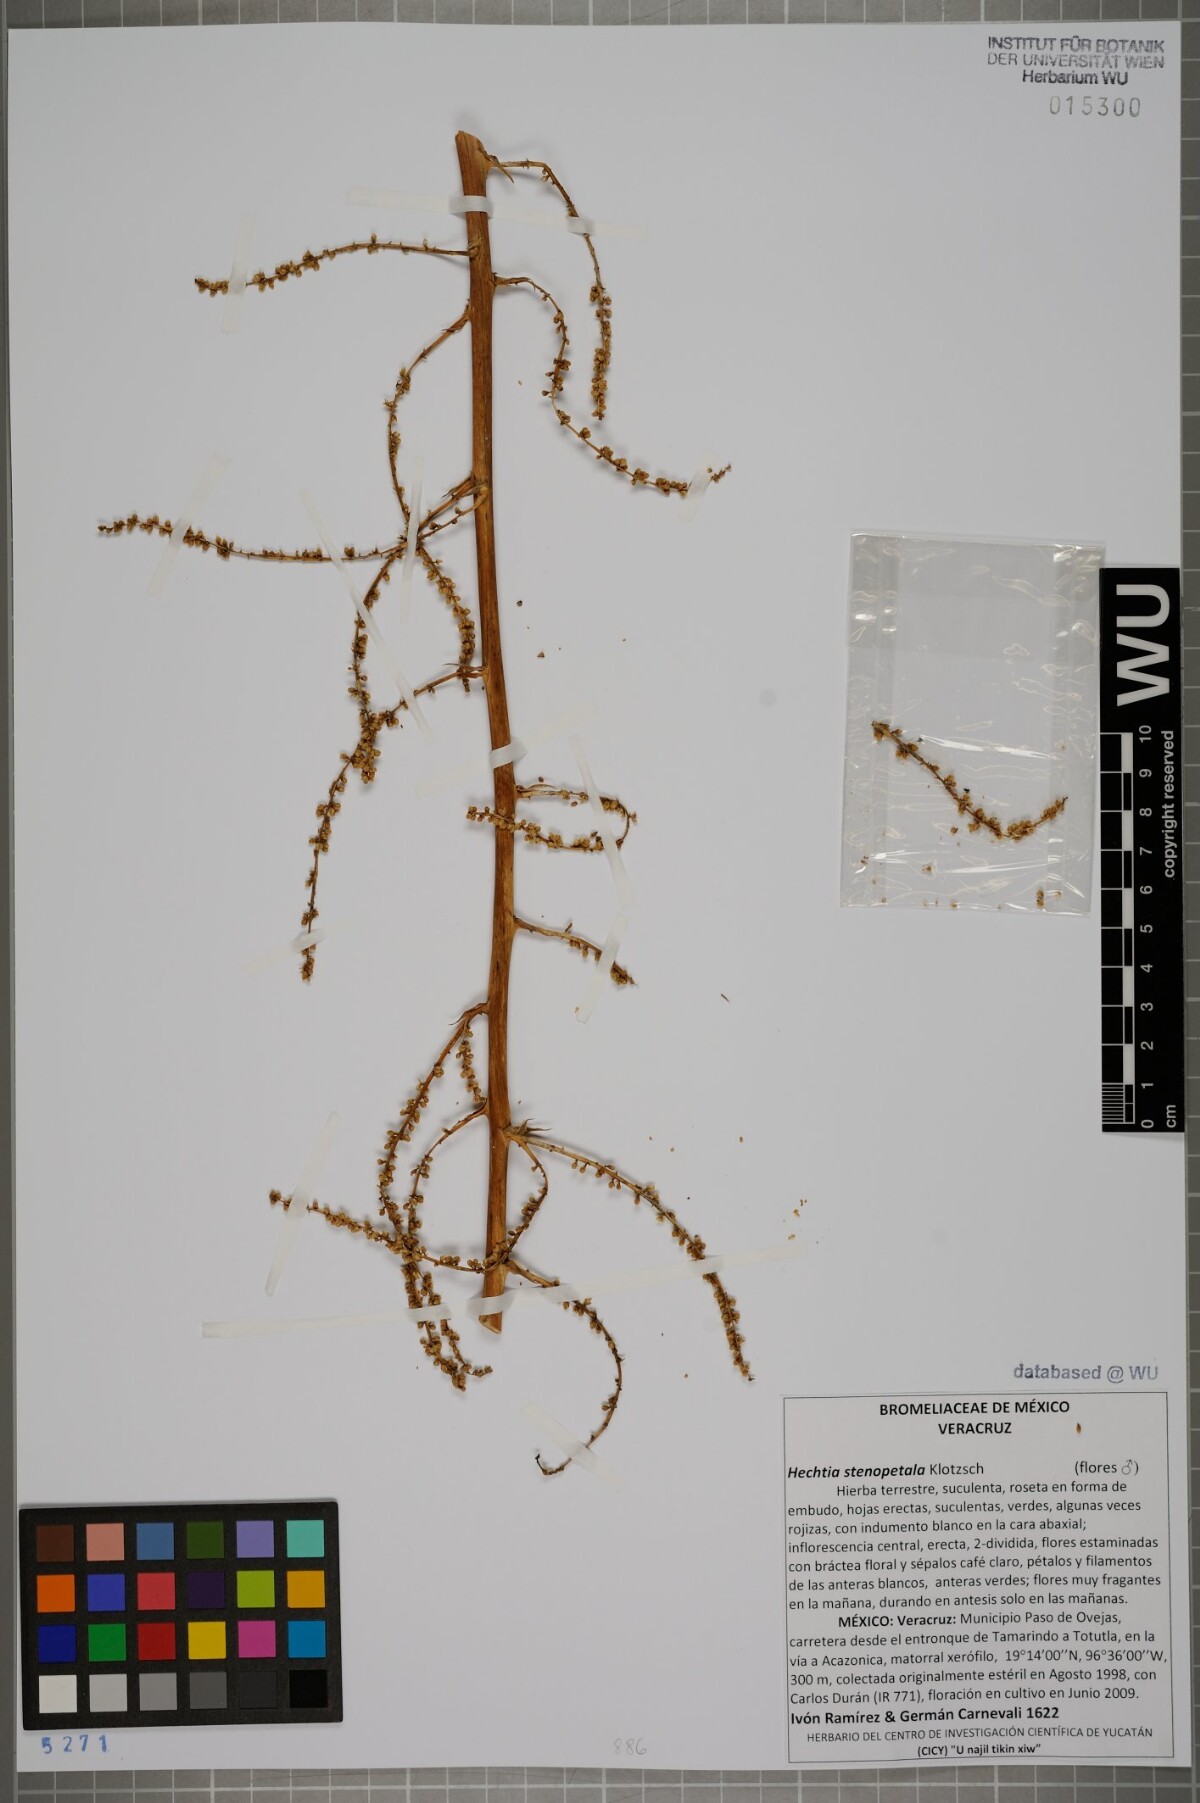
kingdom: Plantae
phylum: Tracheophyta
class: Liliopsida
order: Poales
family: Bromeliaceae
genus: Hechtia
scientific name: Hechtia stenopetala
